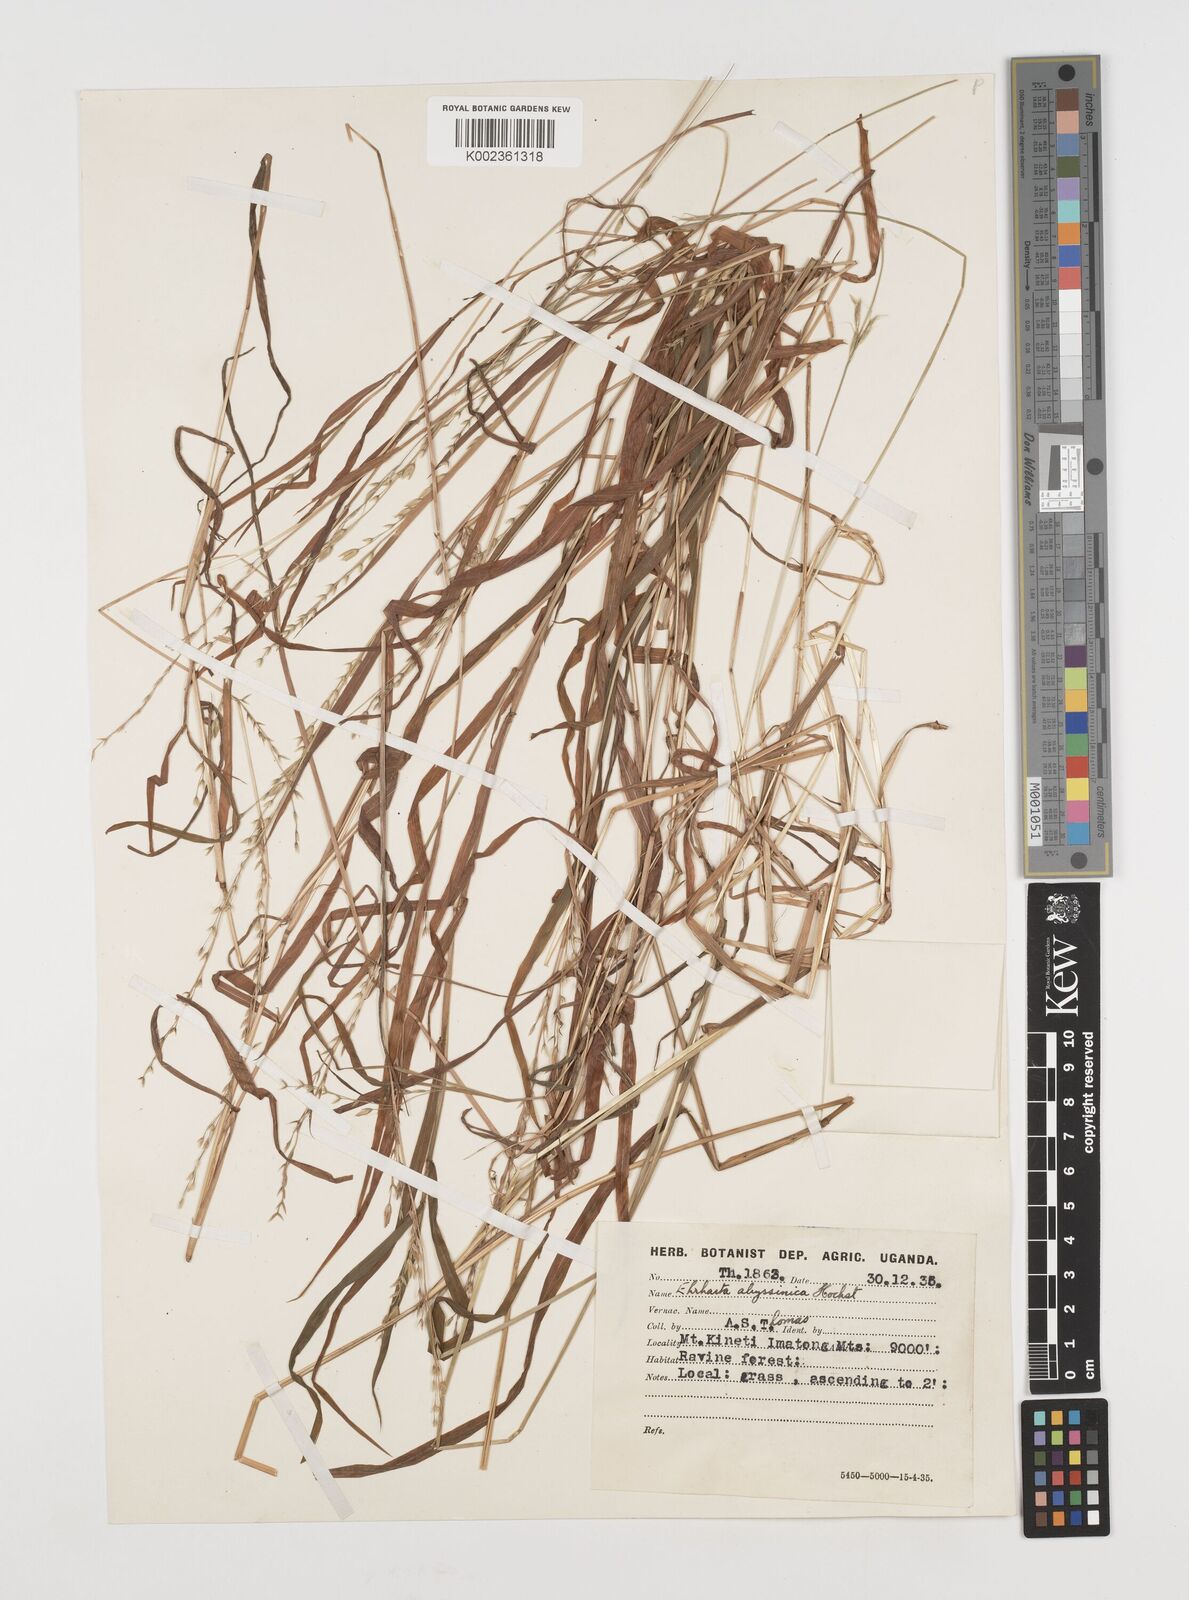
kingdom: Plantae
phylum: Tracheophyta
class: Liliopsida
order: Poales
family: Poaceae
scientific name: Poaceae
